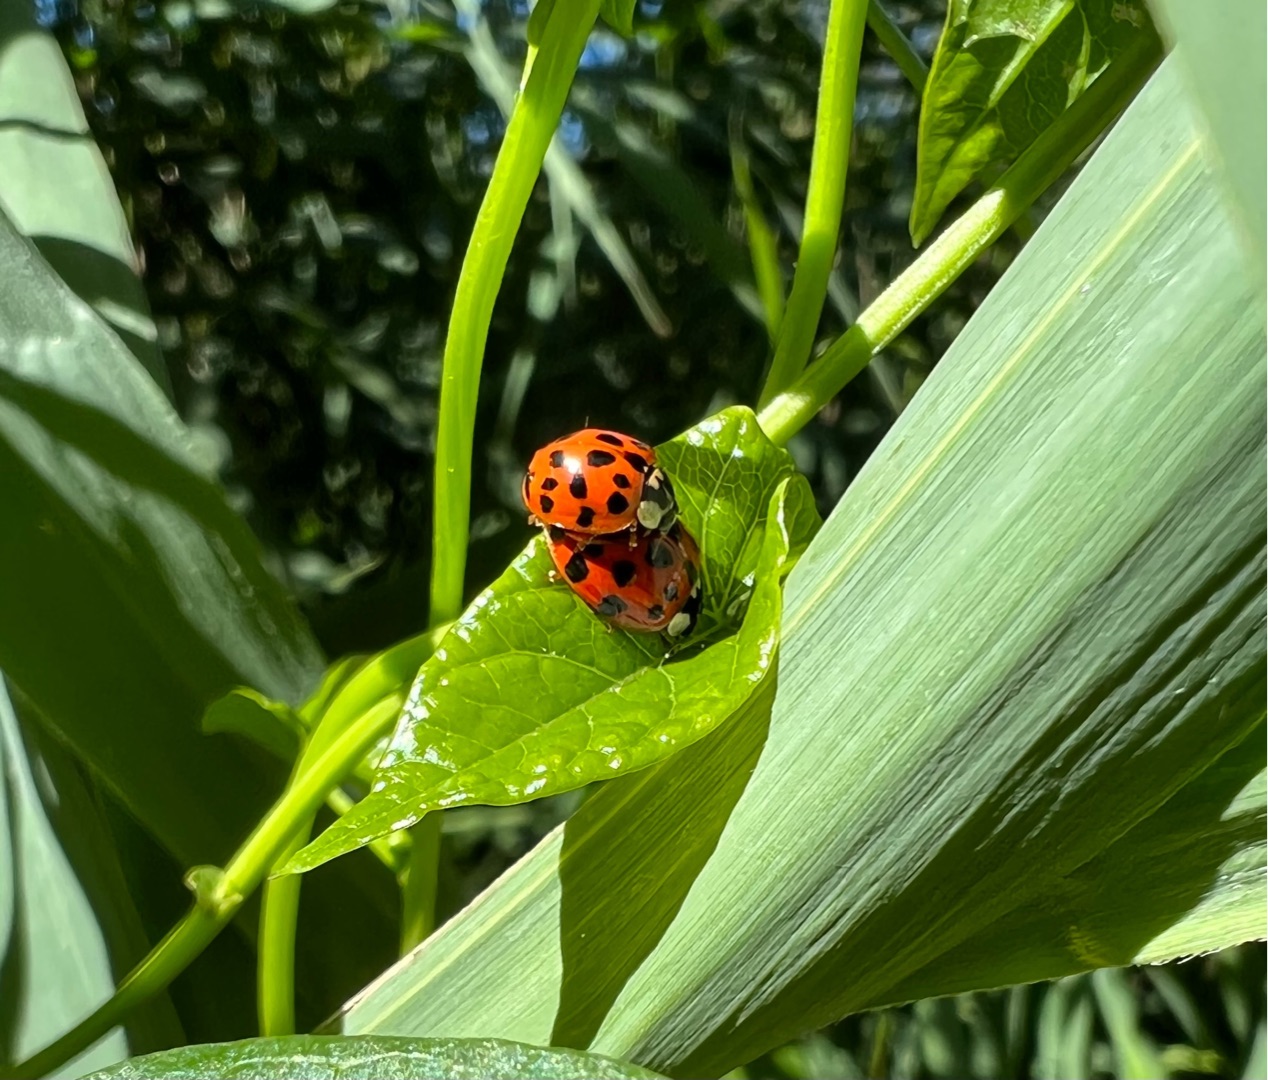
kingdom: Animalia
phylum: Arthropoda
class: Insecta
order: Coleoptera
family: Coccinellidae
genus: Harmonia
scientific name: Harmonia axyridis
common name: Harlekinmariehøne
